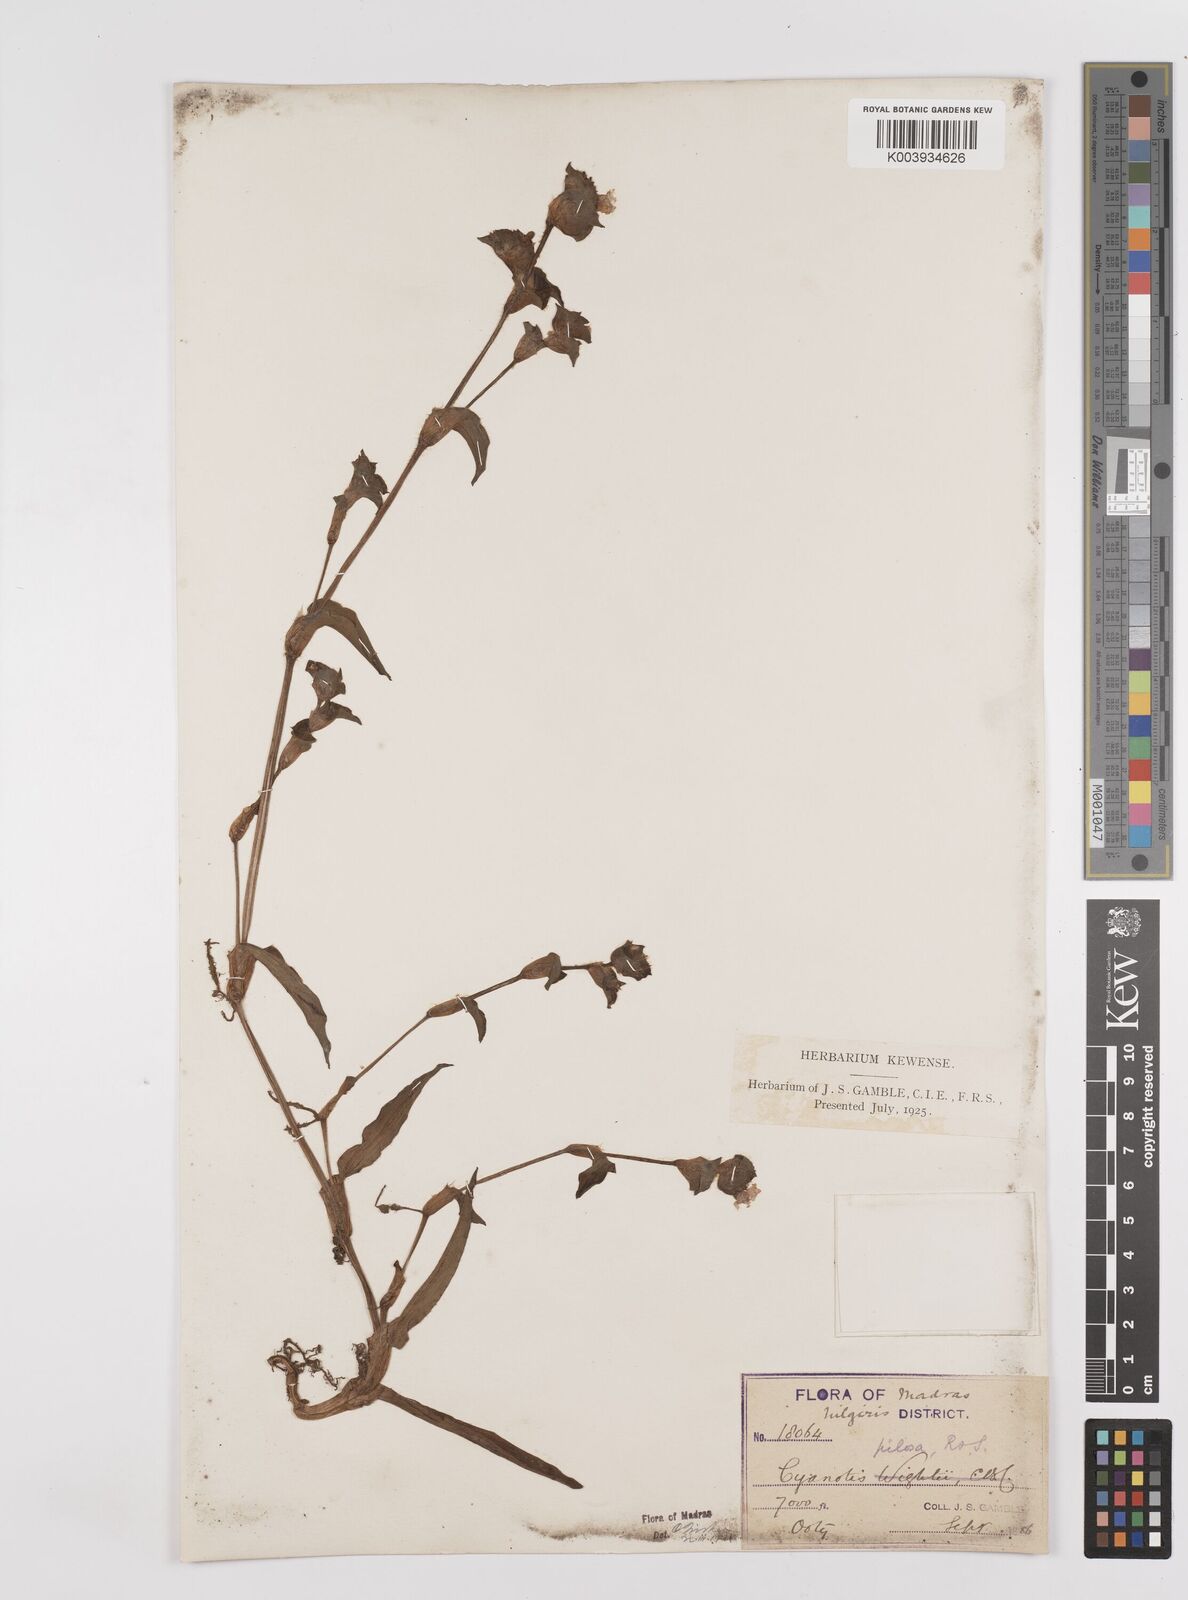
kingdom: Plantae
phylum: Tracheophyta
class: Liliopsida
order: Commelinales
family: Commelinaceae
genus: Cyanotis
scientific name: Cyanotis pilosa
